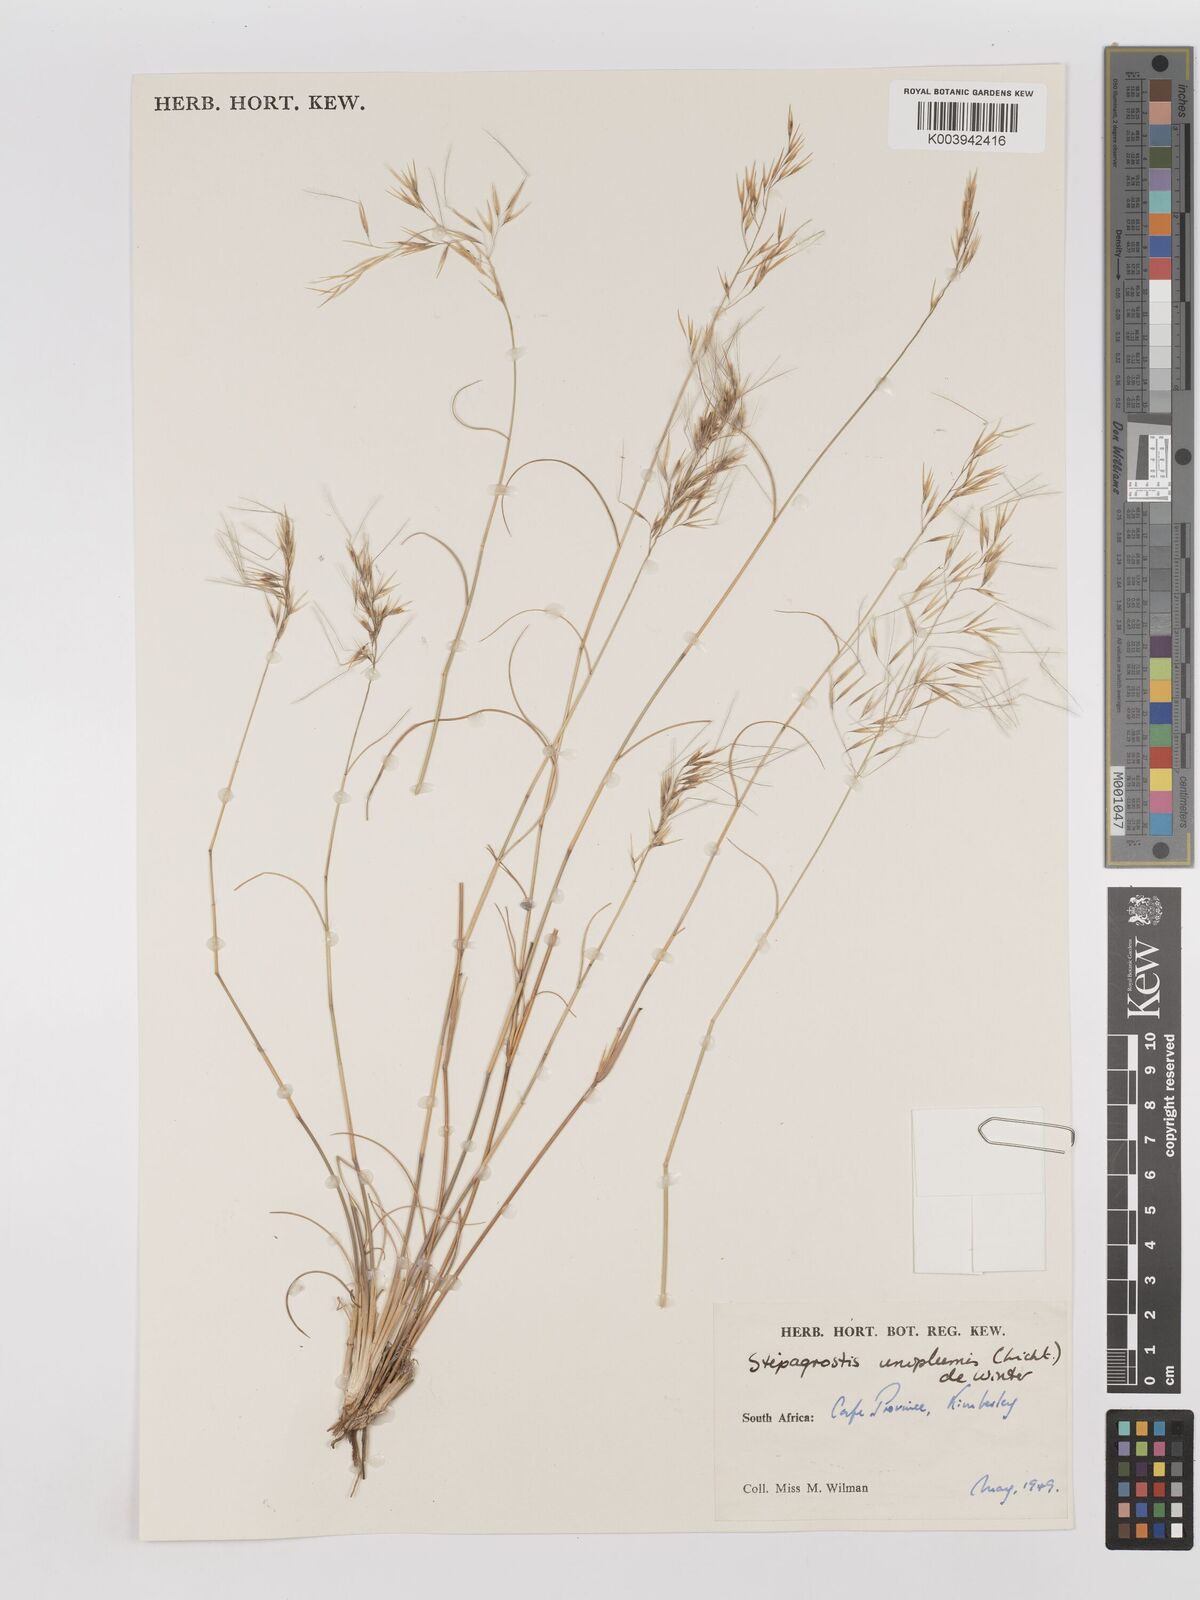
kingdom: Plantae
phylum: Tracheophyta
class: Liliopsida
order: Poales
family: Poaceae
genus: Stipagrostis
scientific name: Stipagrostis uniplumis
